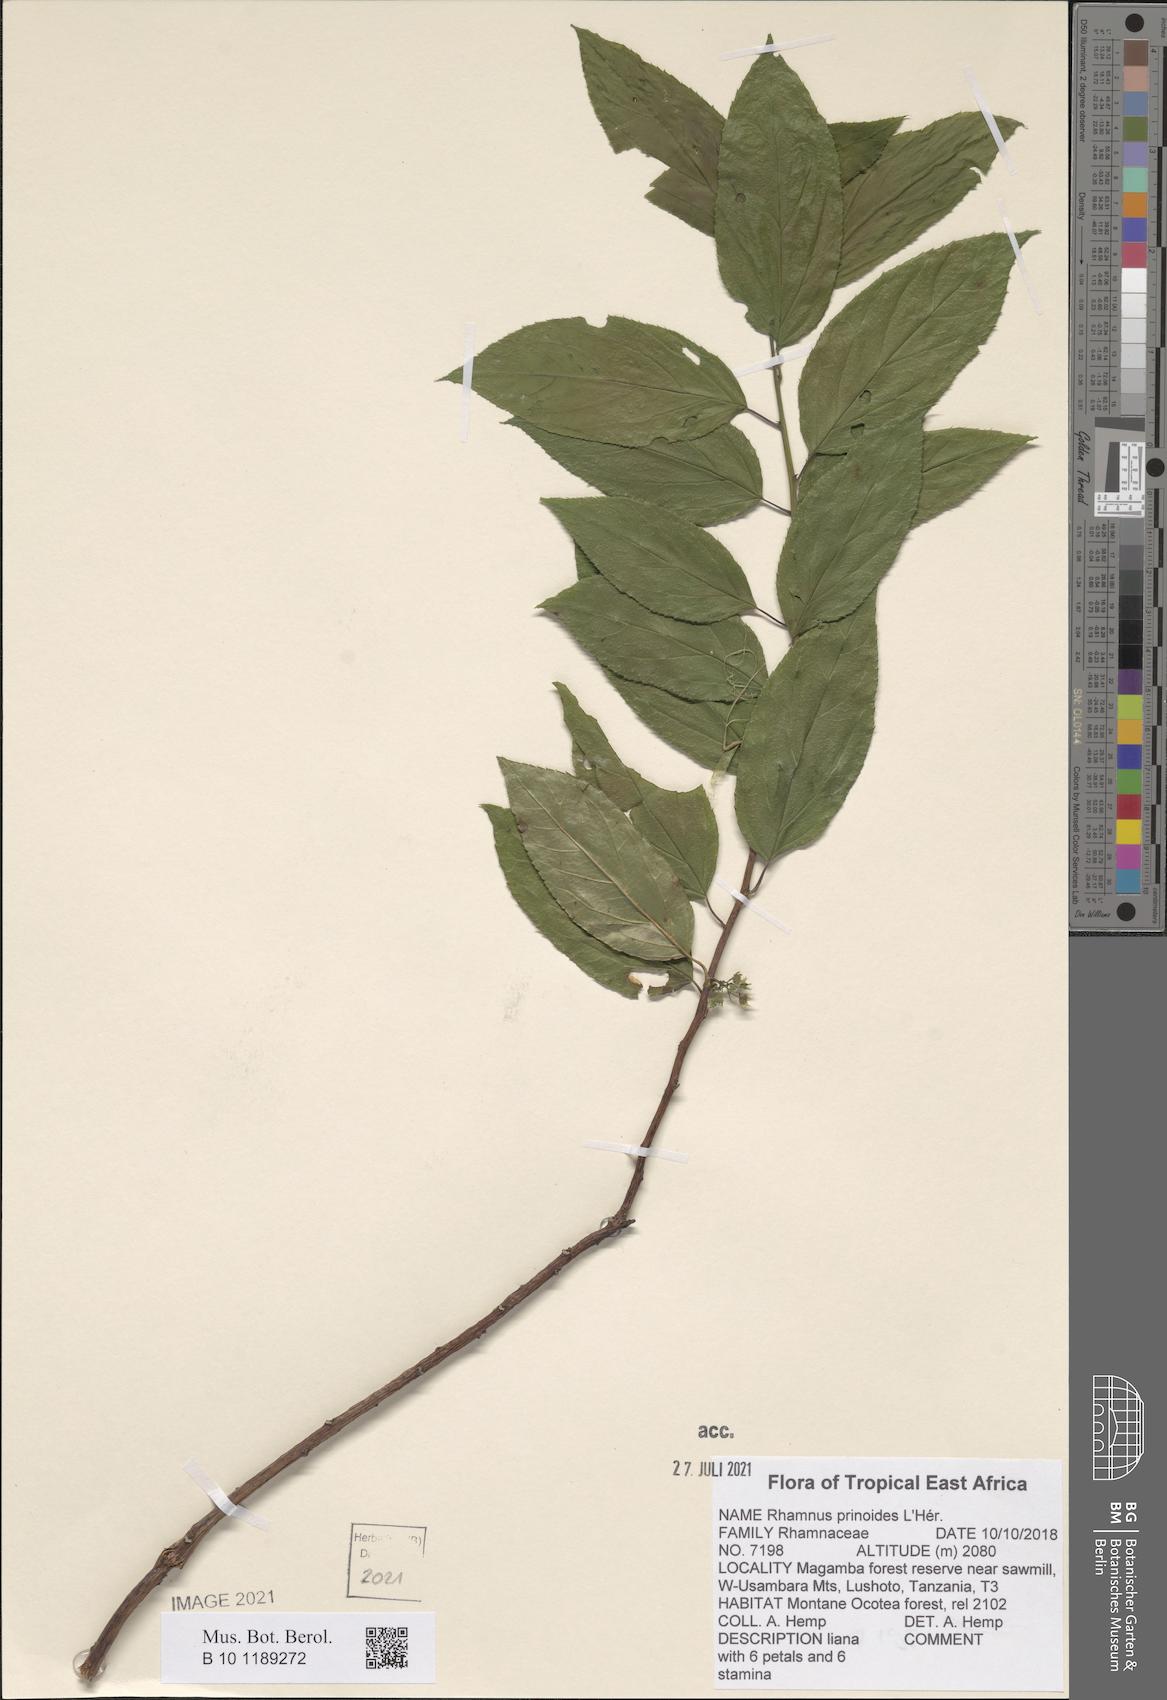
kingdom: Plantae
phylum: Tracheophyta
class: Magnoliopsida
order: Rosales
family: Rhamnaceae
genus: Rhamnus
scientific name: Rhamnus prinoides
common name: Dogwood
